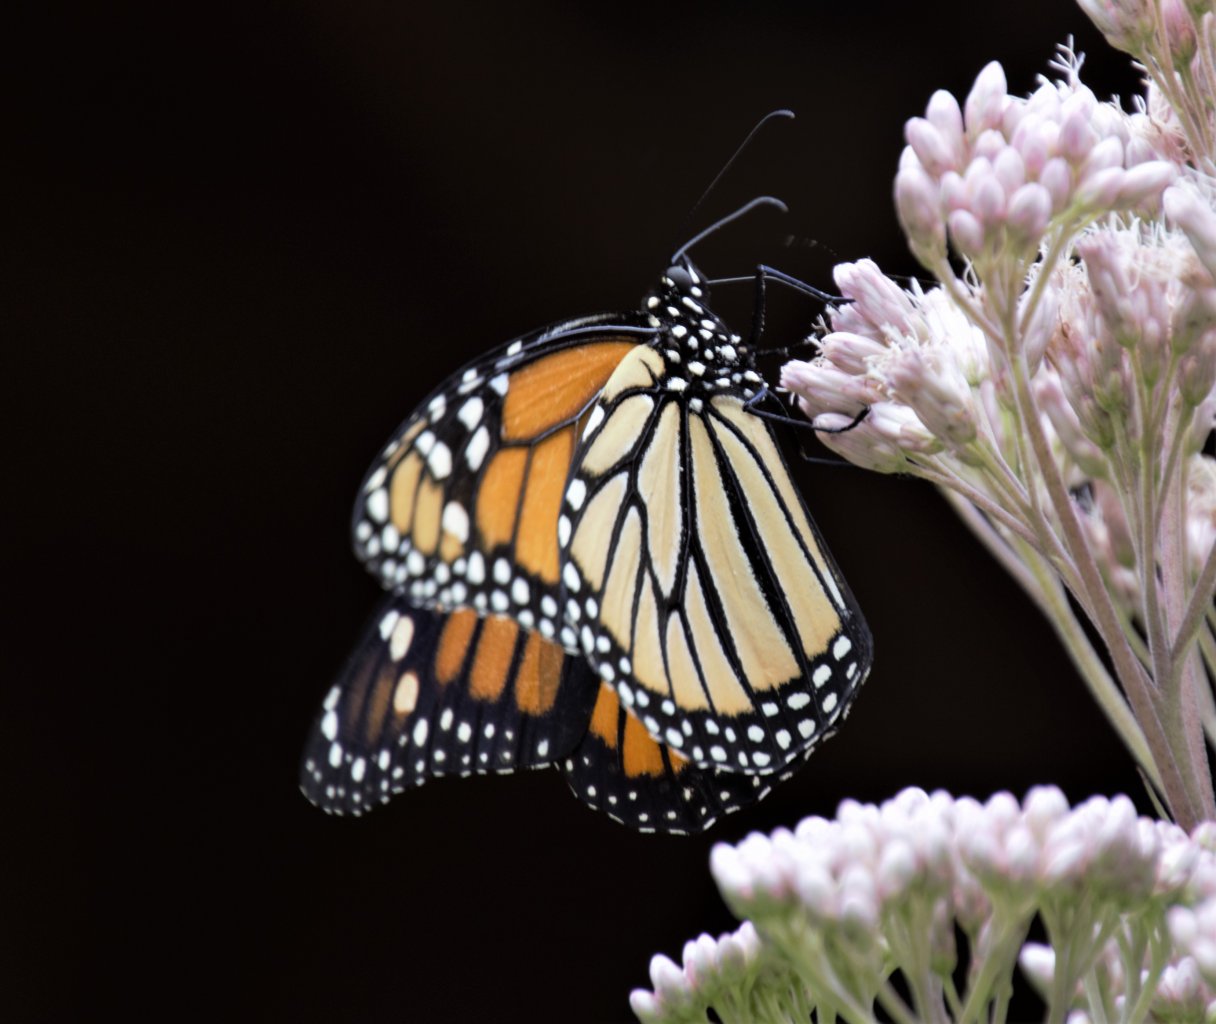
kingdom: Animalia
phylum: Arthropoda
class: Insecta
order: Lepidoptera
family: Nymphalidae
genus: Danaus
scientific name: Danaus plexippus
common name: Monarch
